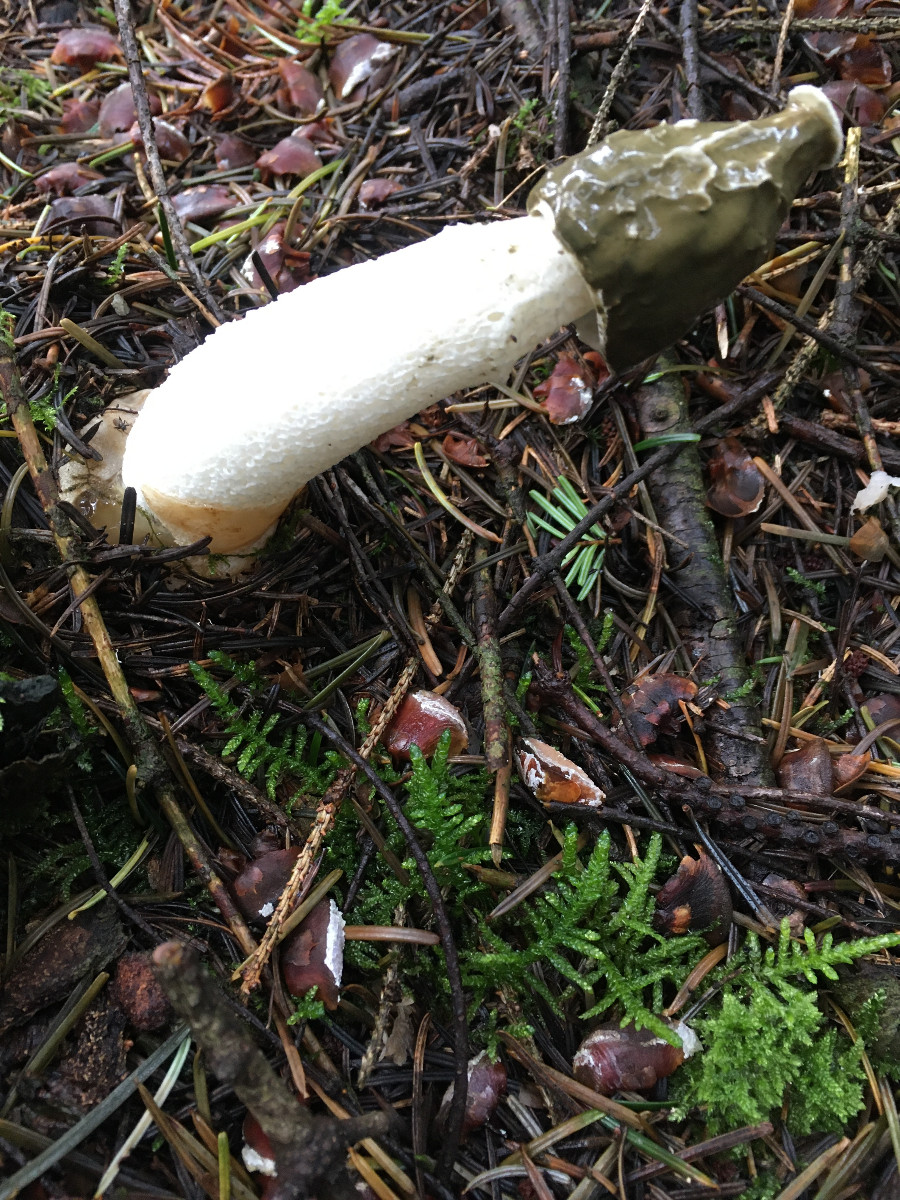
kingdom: Fungi
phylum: Basidiomycota
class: Agaricomycetes
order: Phallales
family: Phallaceae
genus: Phallus
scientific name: Phallus impudicus
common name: almindelig stinksvamp
